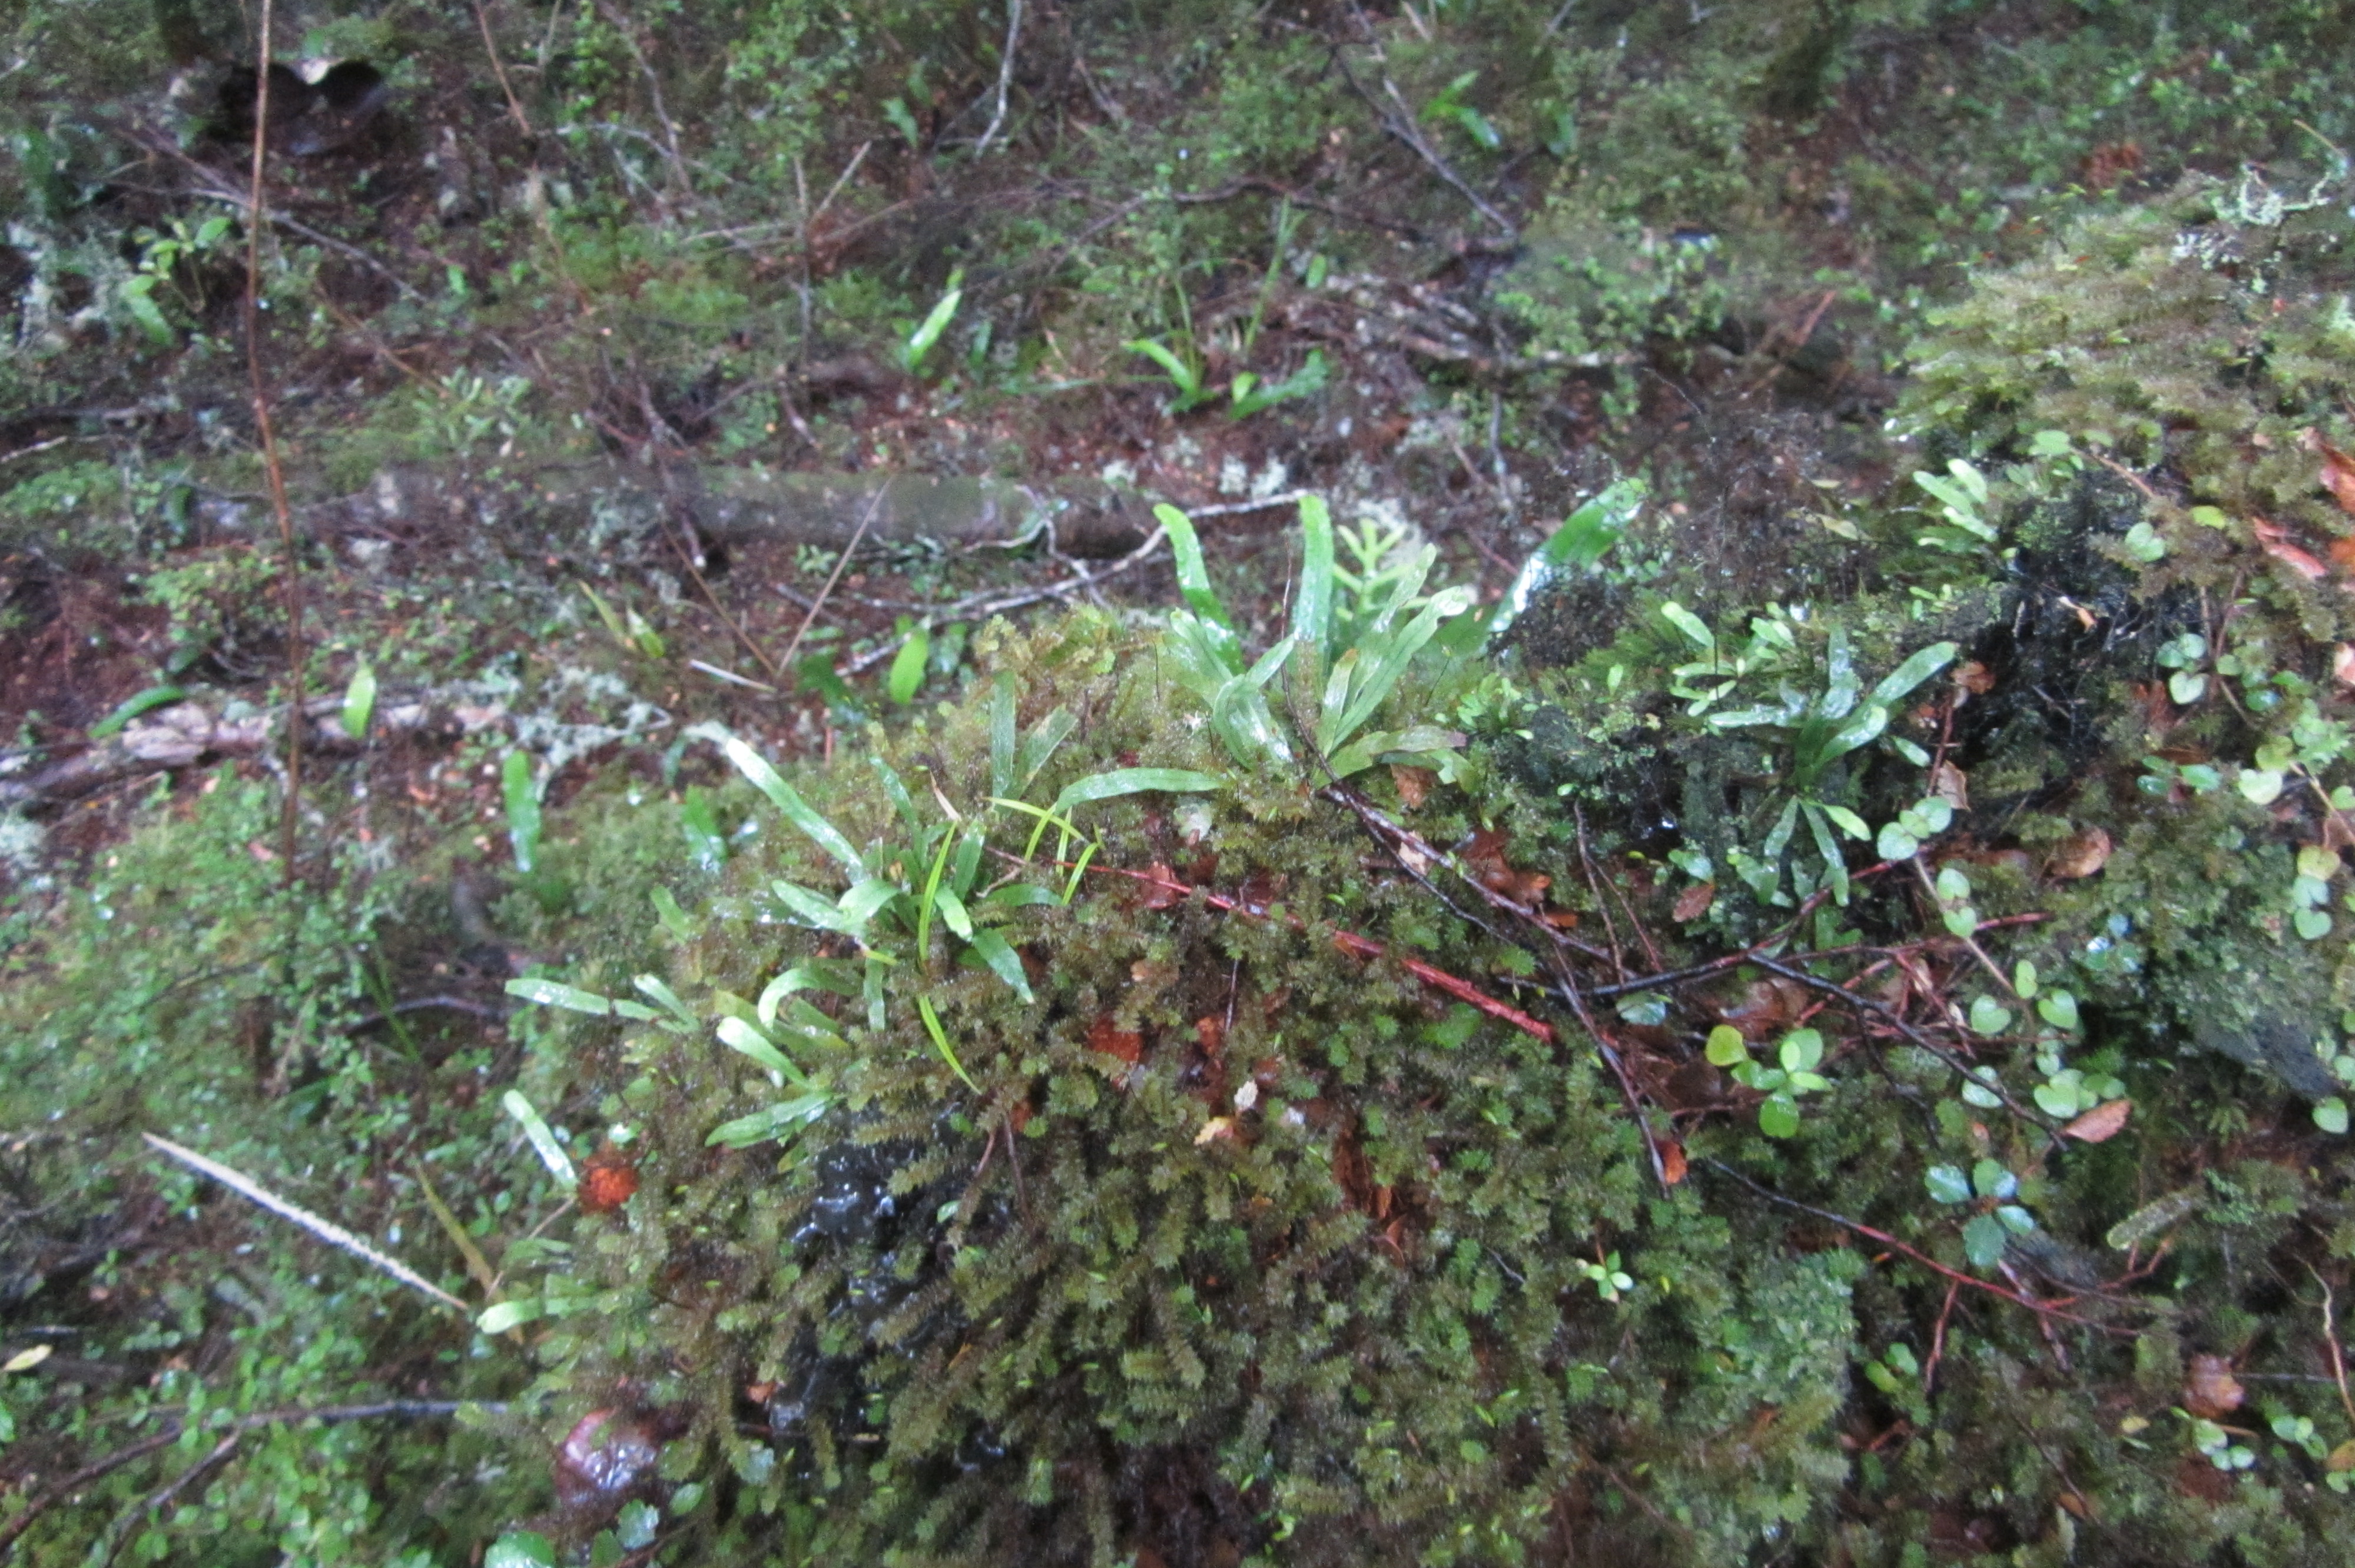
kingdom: Plantae
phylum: Tracheophyta
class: Polypodiopsida
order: Polypodiales
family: Polypodiaceae
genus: Notogrammitis
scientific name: Notogrammitis billardierei
